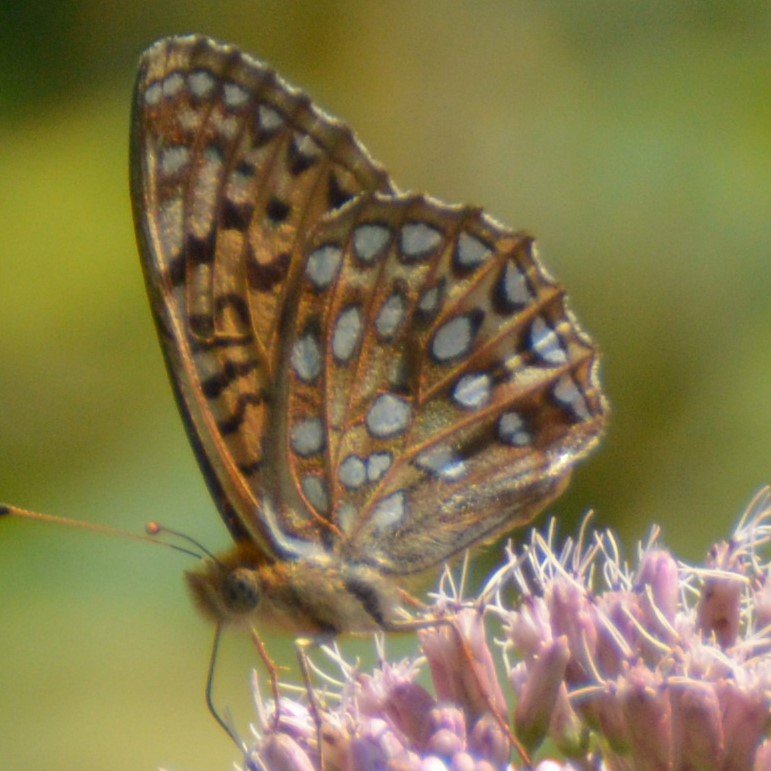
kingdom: Animalia
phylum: Arthropoda
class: Insecta
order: Lepidoptera
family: Nymphalidae
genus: Speyeria
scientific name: Speyeria aphrodite
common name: Aphrodite Fritillary
